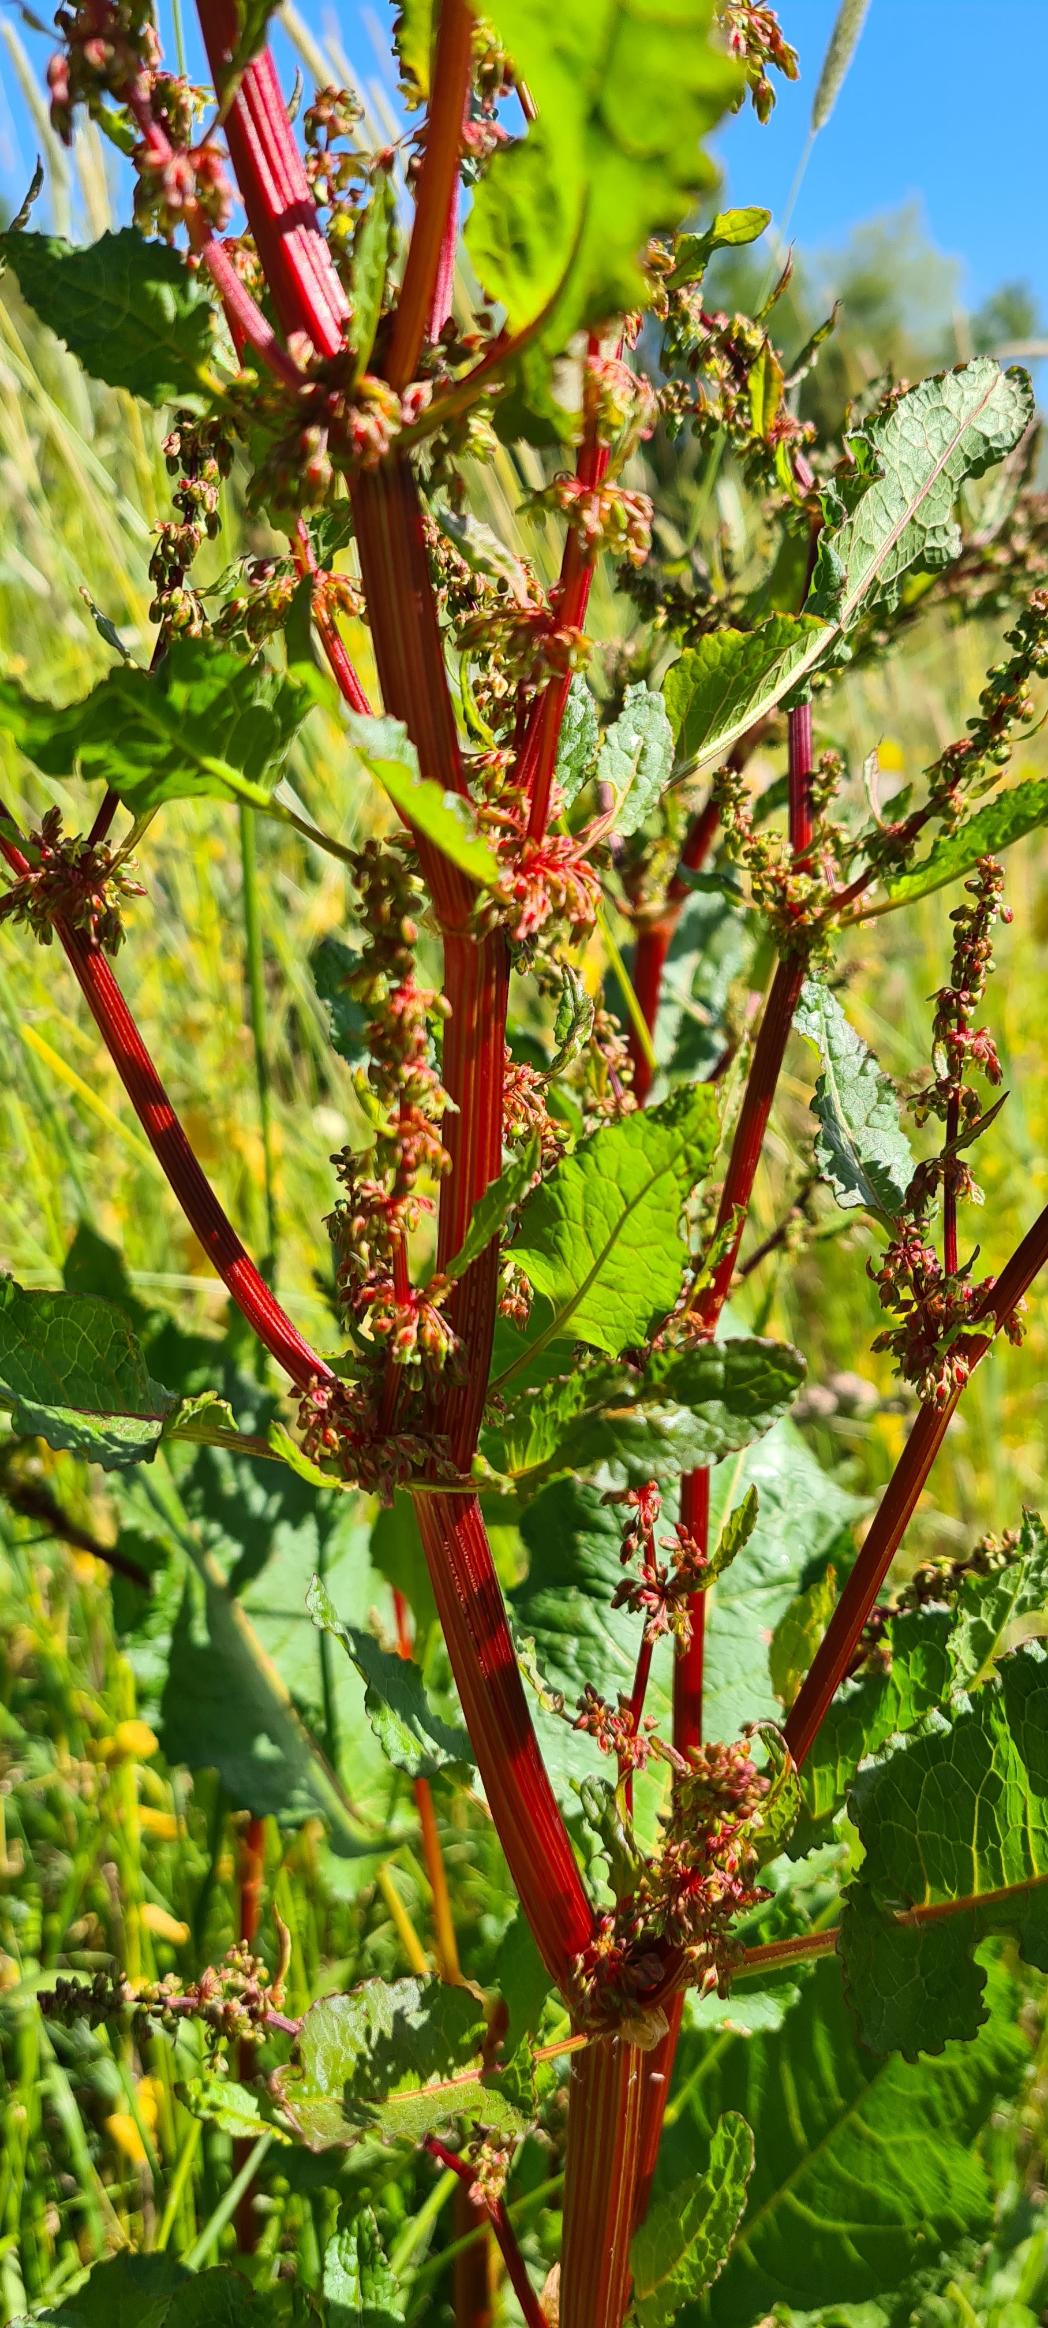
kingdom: Plantae
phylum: Tracheophyta
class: Magnoliopsida
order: Caryophyllales
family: Polygonaceae
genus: Rumex
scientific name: Rumex obtusifolius
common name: Butbladet skræppe
